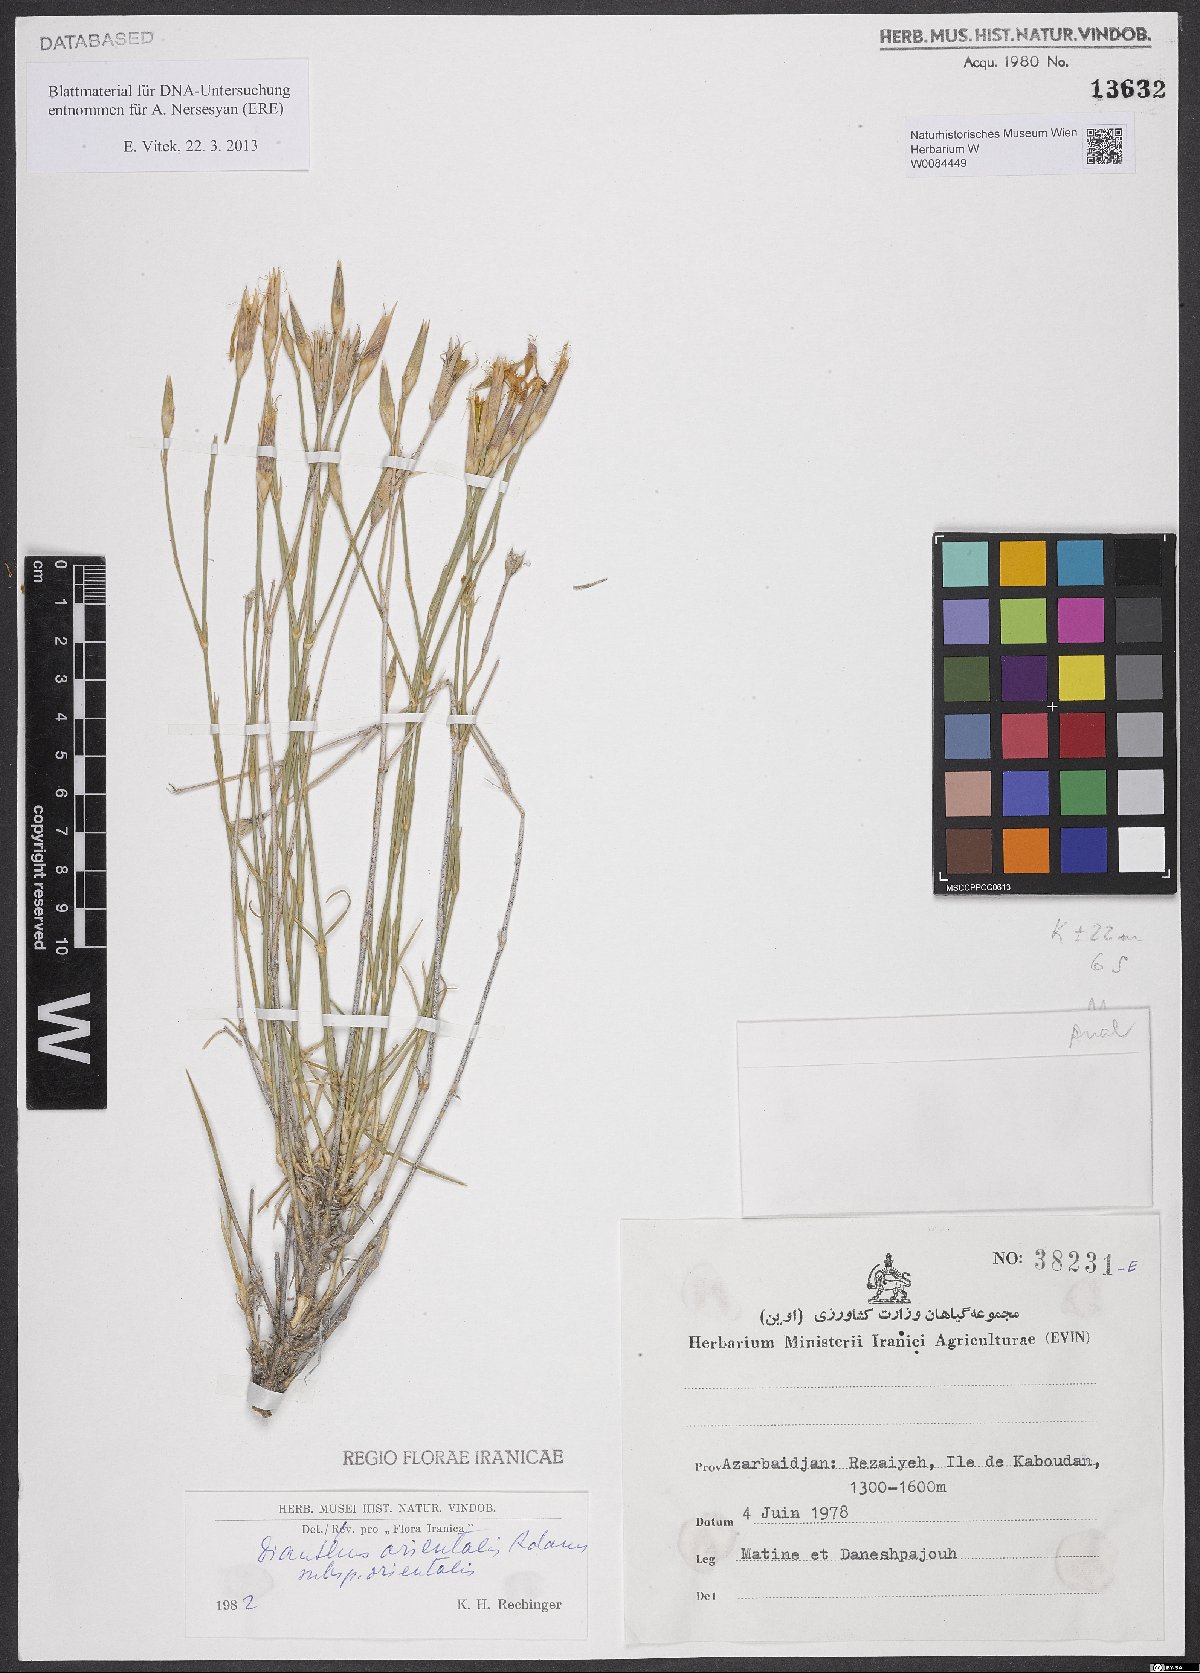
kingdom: Plantae
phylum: Tracheophyta
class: Magnoliopsida
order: Caryophyllales
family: Caryophyllaceae
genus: Dianthus
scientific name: Dianthus orientalis
